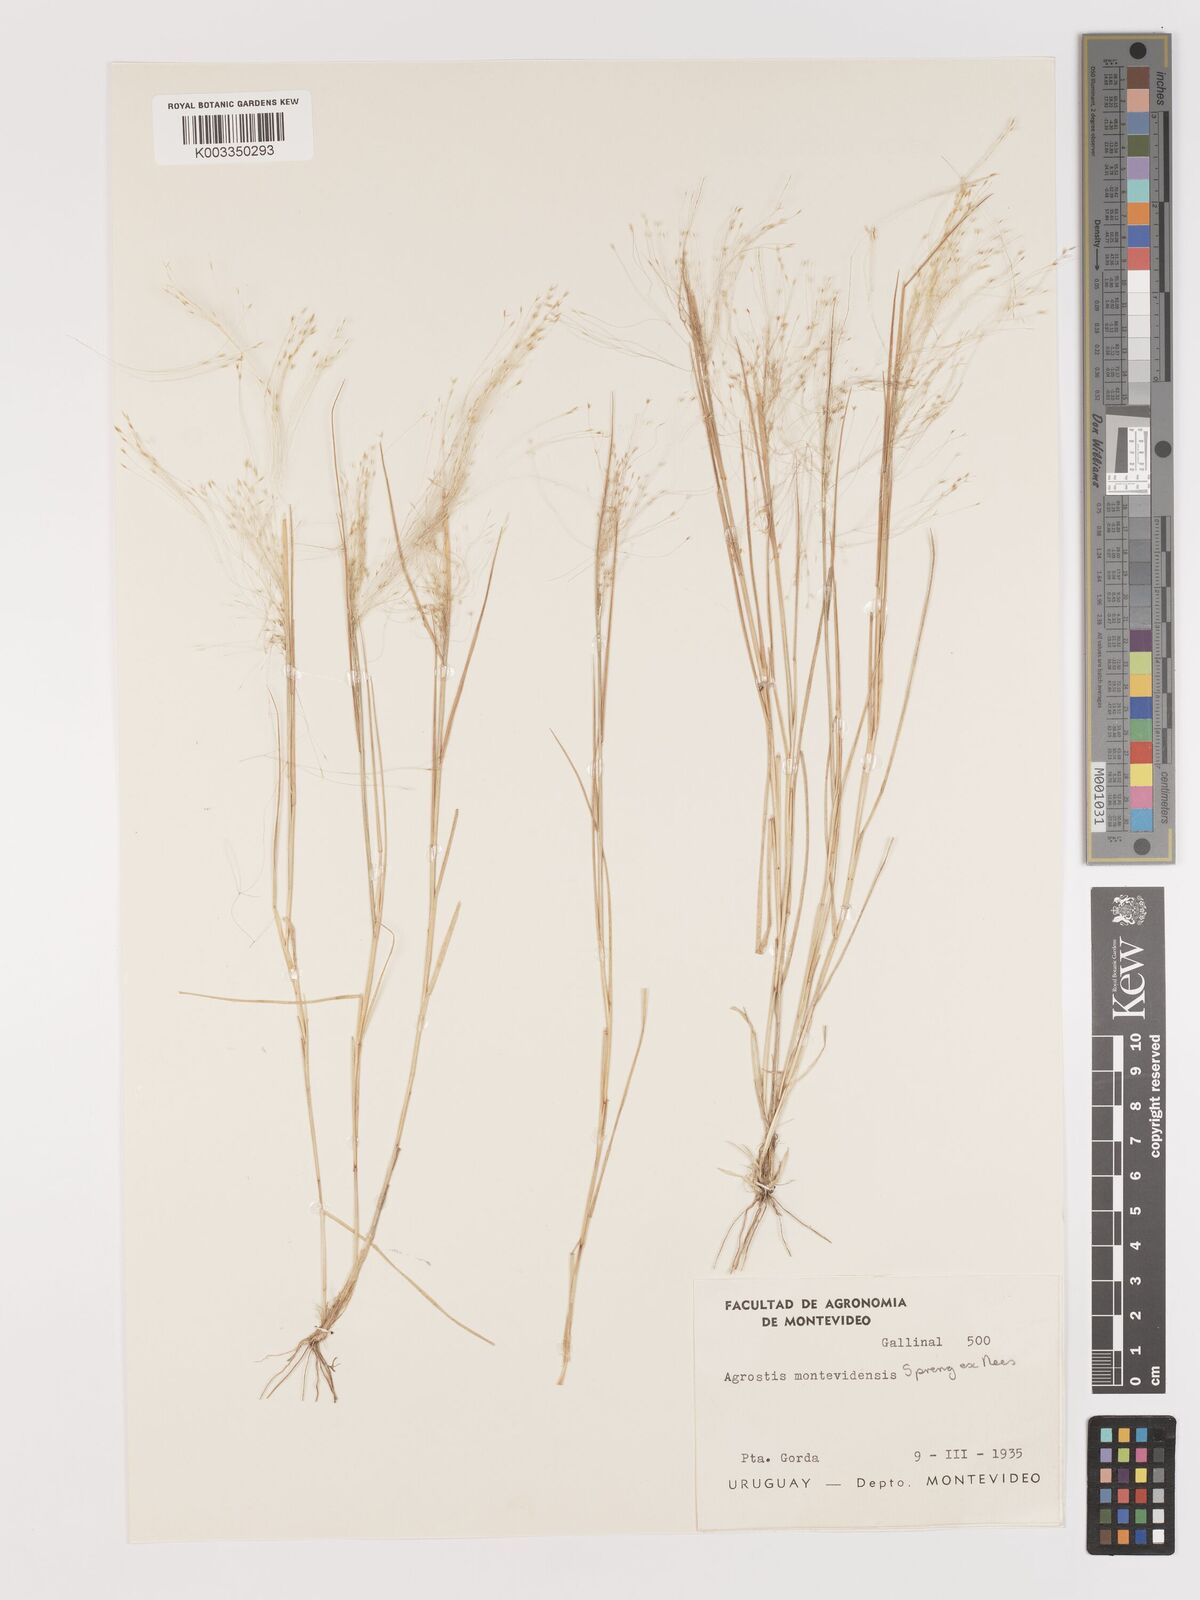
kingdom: Plantae
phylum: Tracheophyta
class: Liliopsida
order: Poales
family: Poaceae
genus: Agrostis
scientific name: Agrostis
